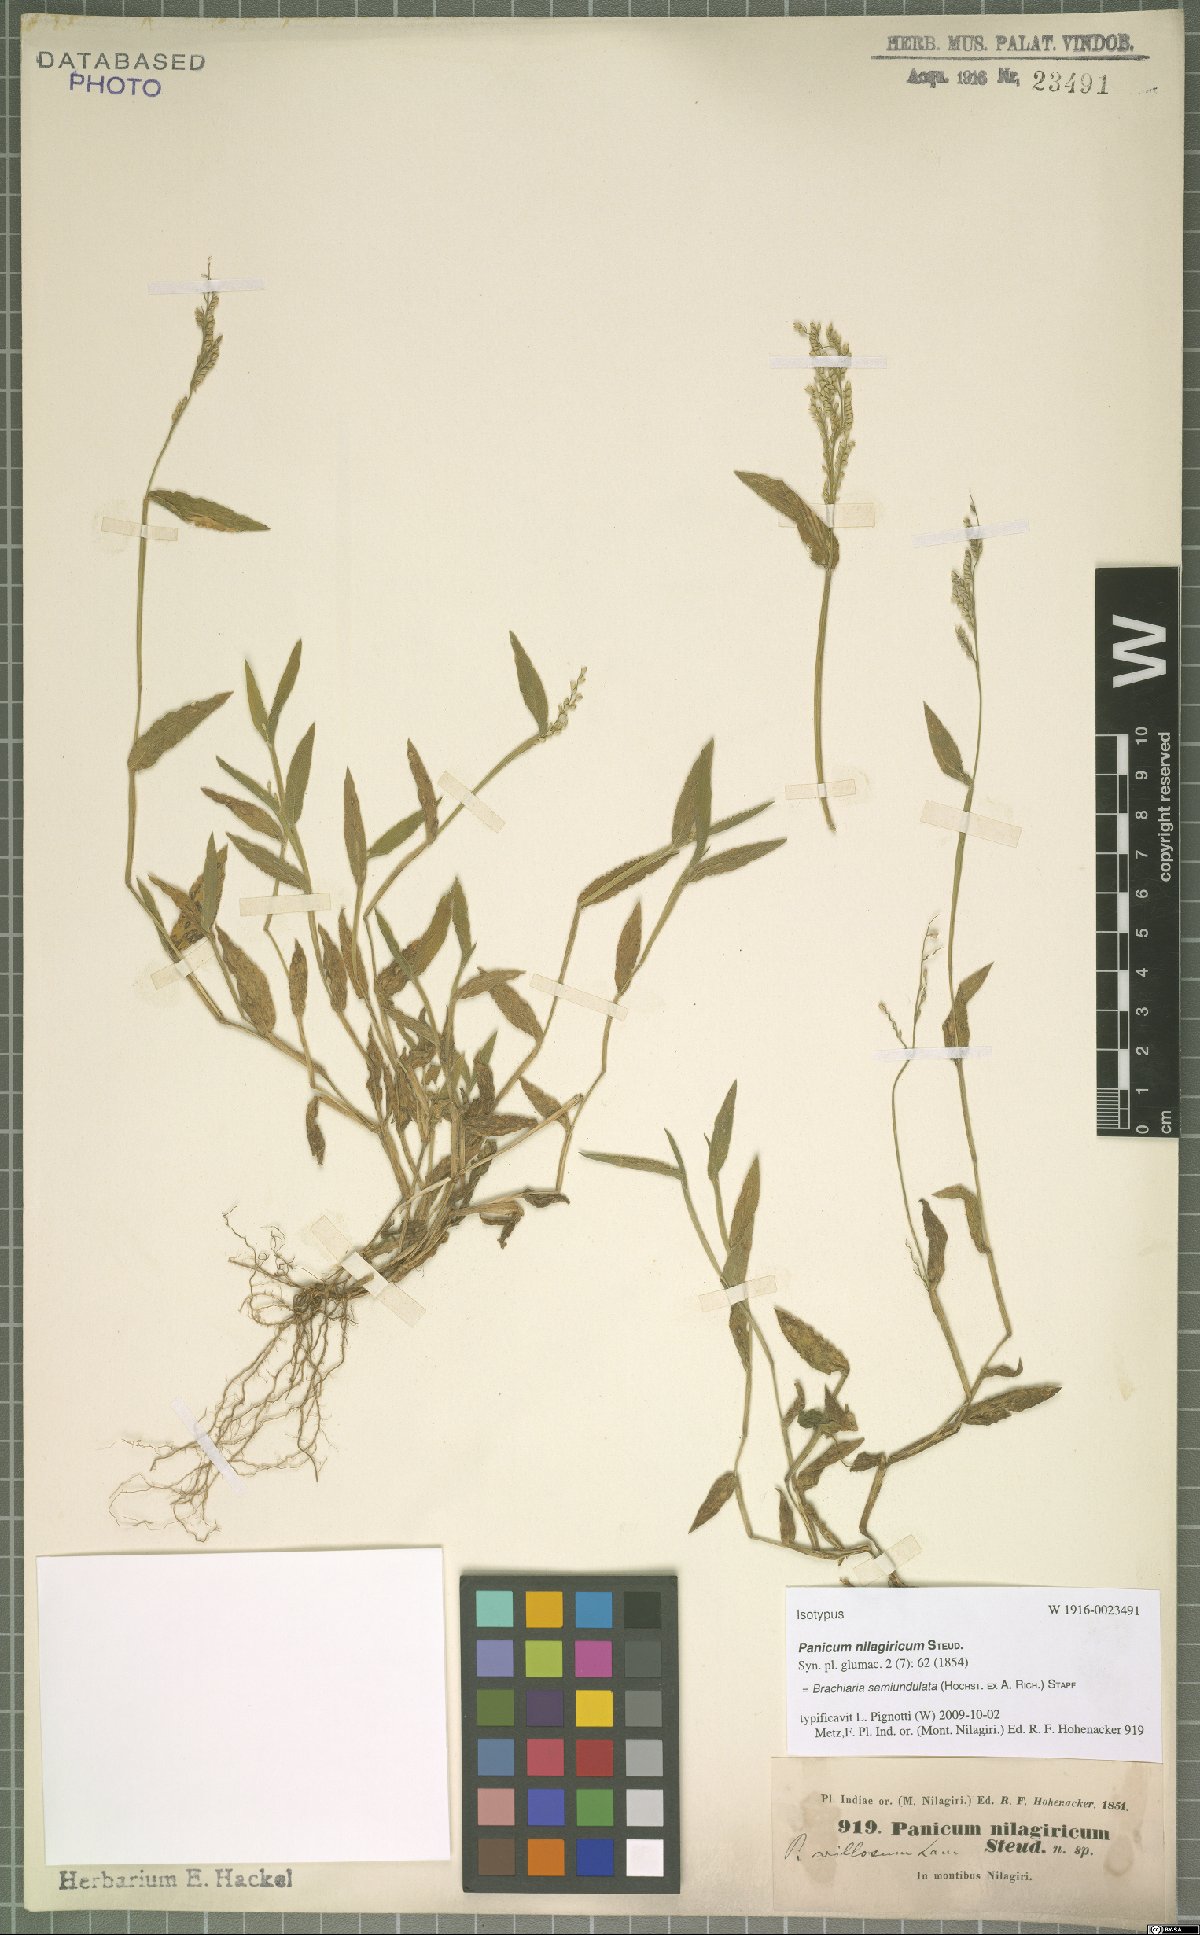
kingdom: Plantae
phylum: Tracheophyta
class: Liliopsida
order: Poales
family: Poaceae
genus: Urochloa
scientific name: Urochloa semiundulata
